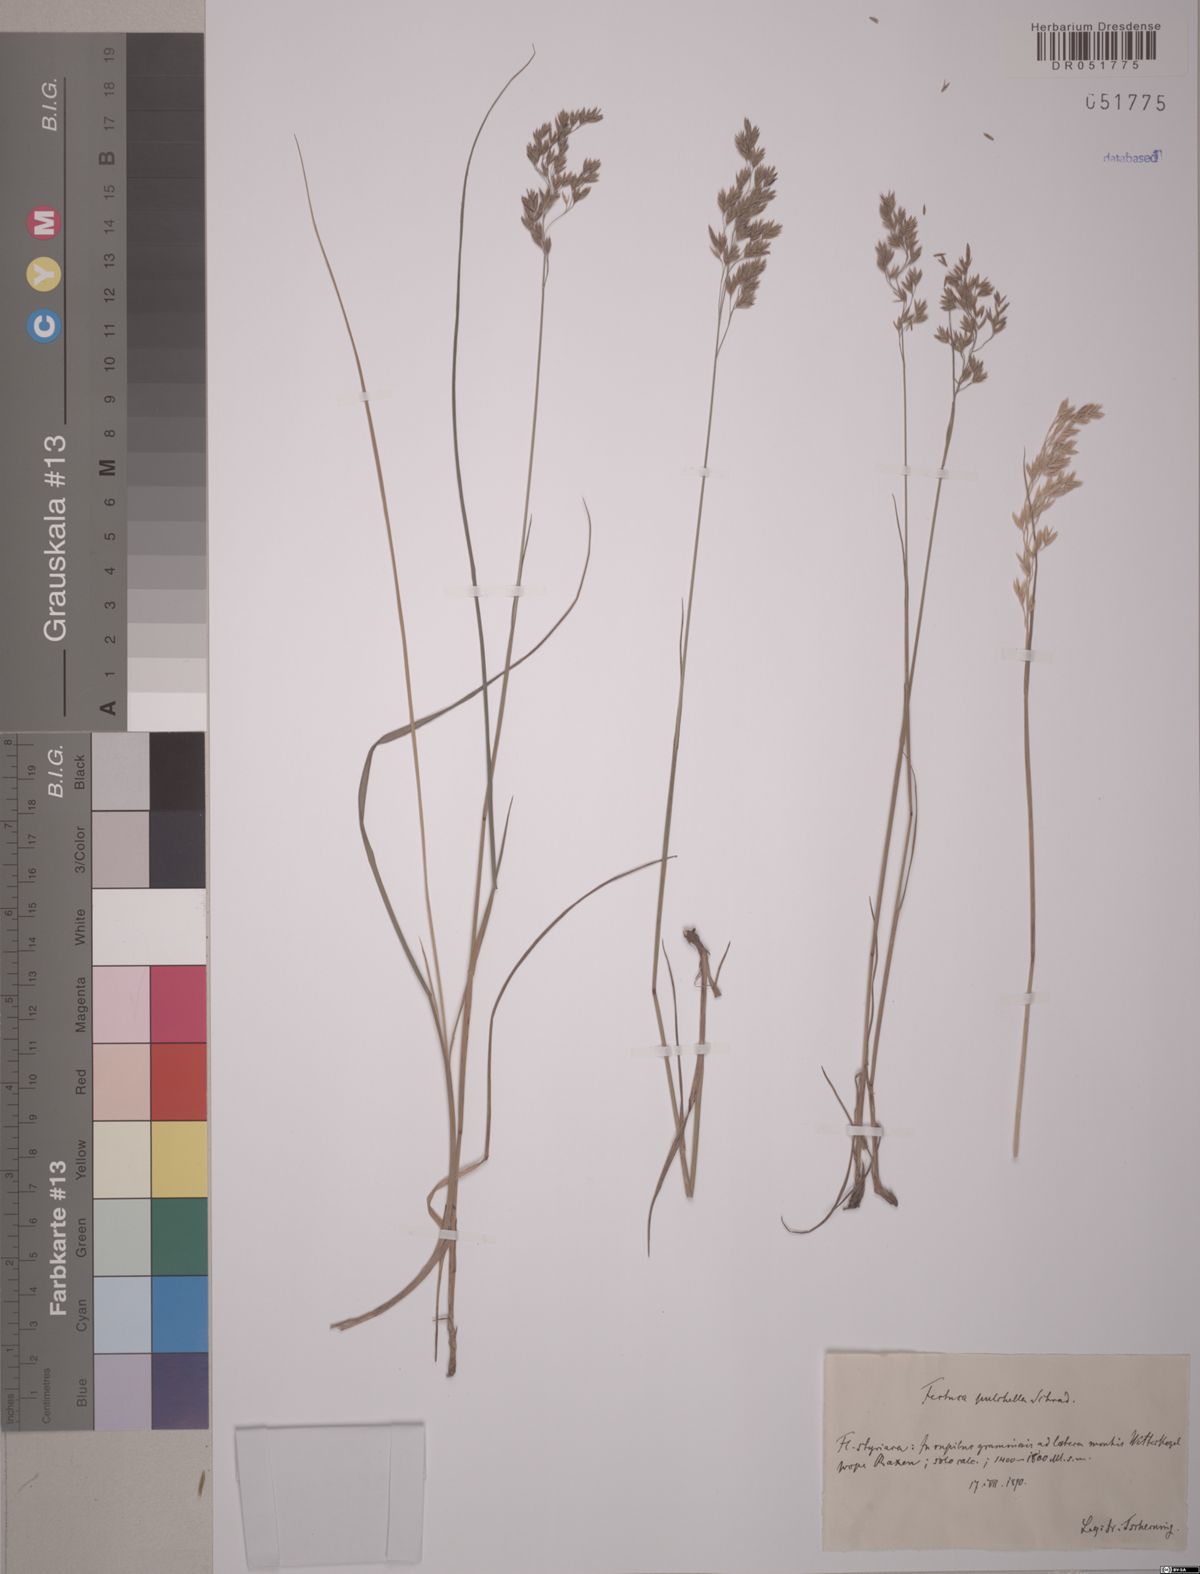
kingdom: Plantae
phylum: Tracheophyta
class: Liliopsida
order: Poales
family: Poaceae
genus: Festuca
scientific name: Festuca pulchella
